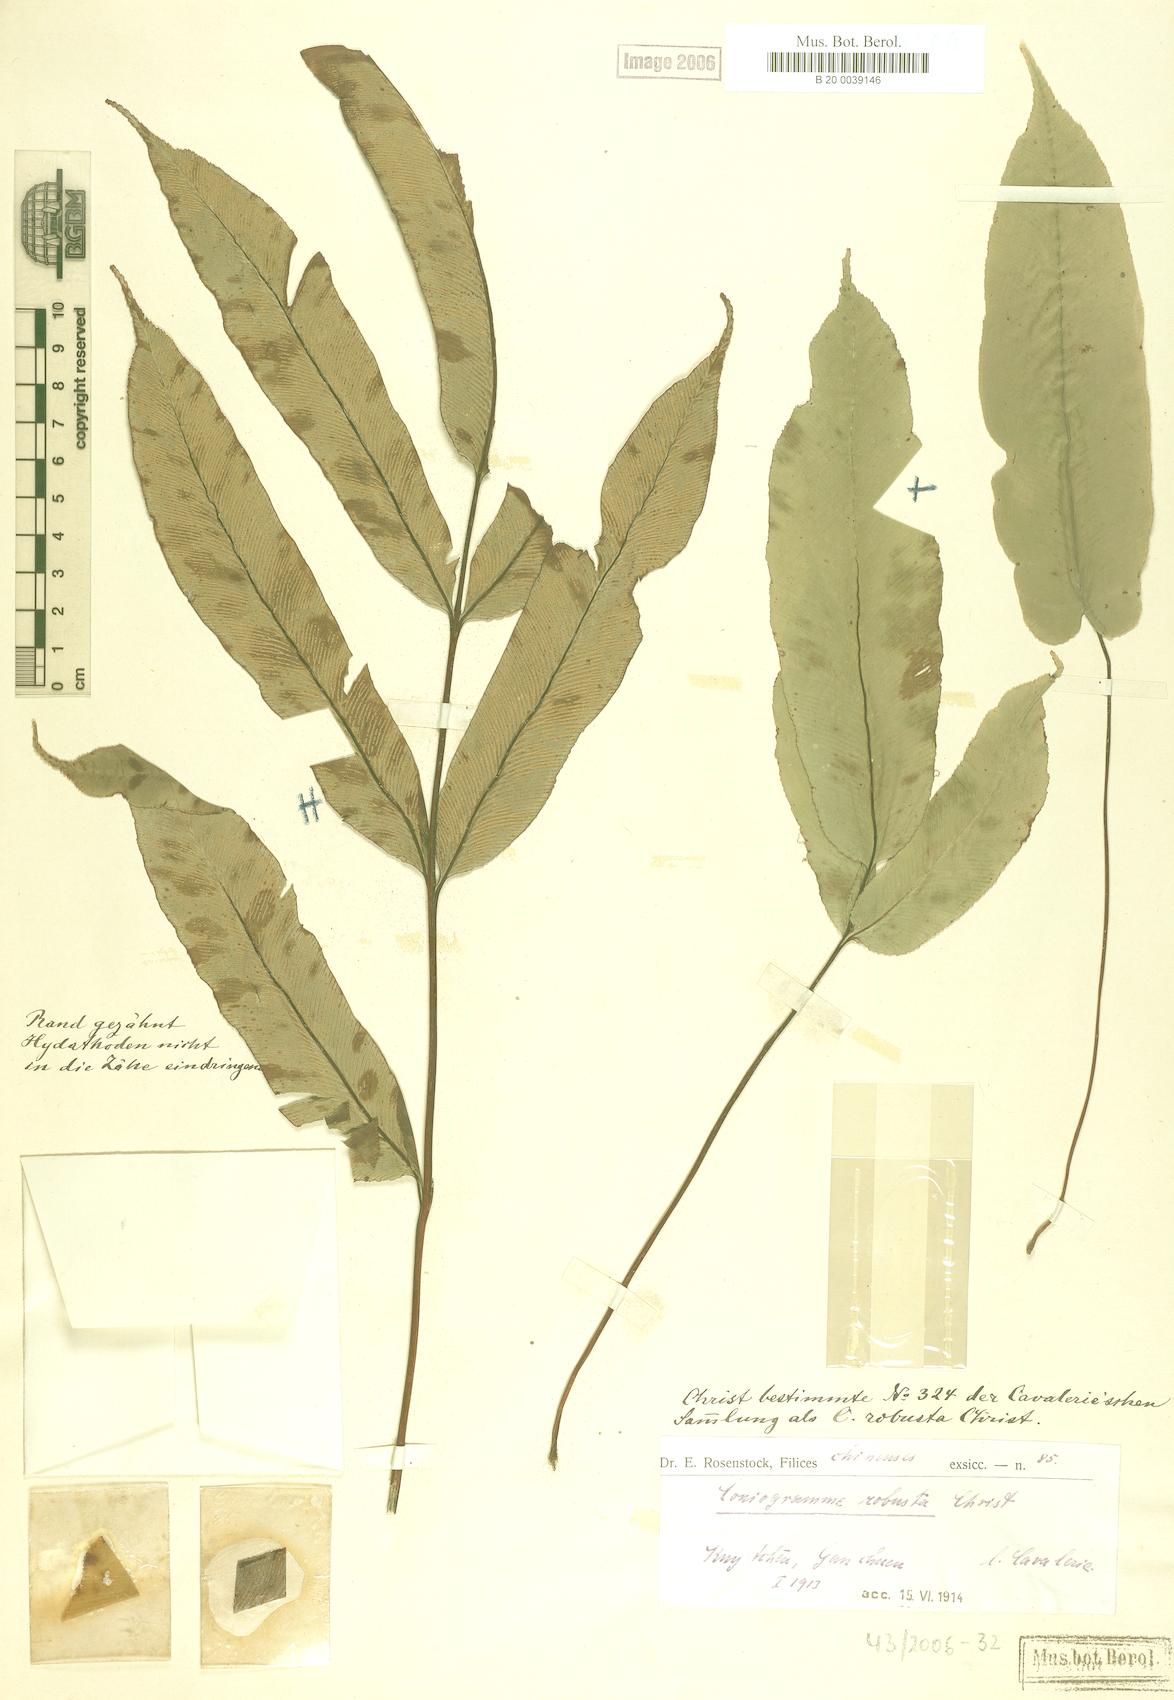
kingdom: Plantae
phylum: Tracheophyta
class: Polypodiopsida
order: Polypodiales
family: Pteridaceae
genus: Coniogramme
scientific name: Coniogramme robusta
